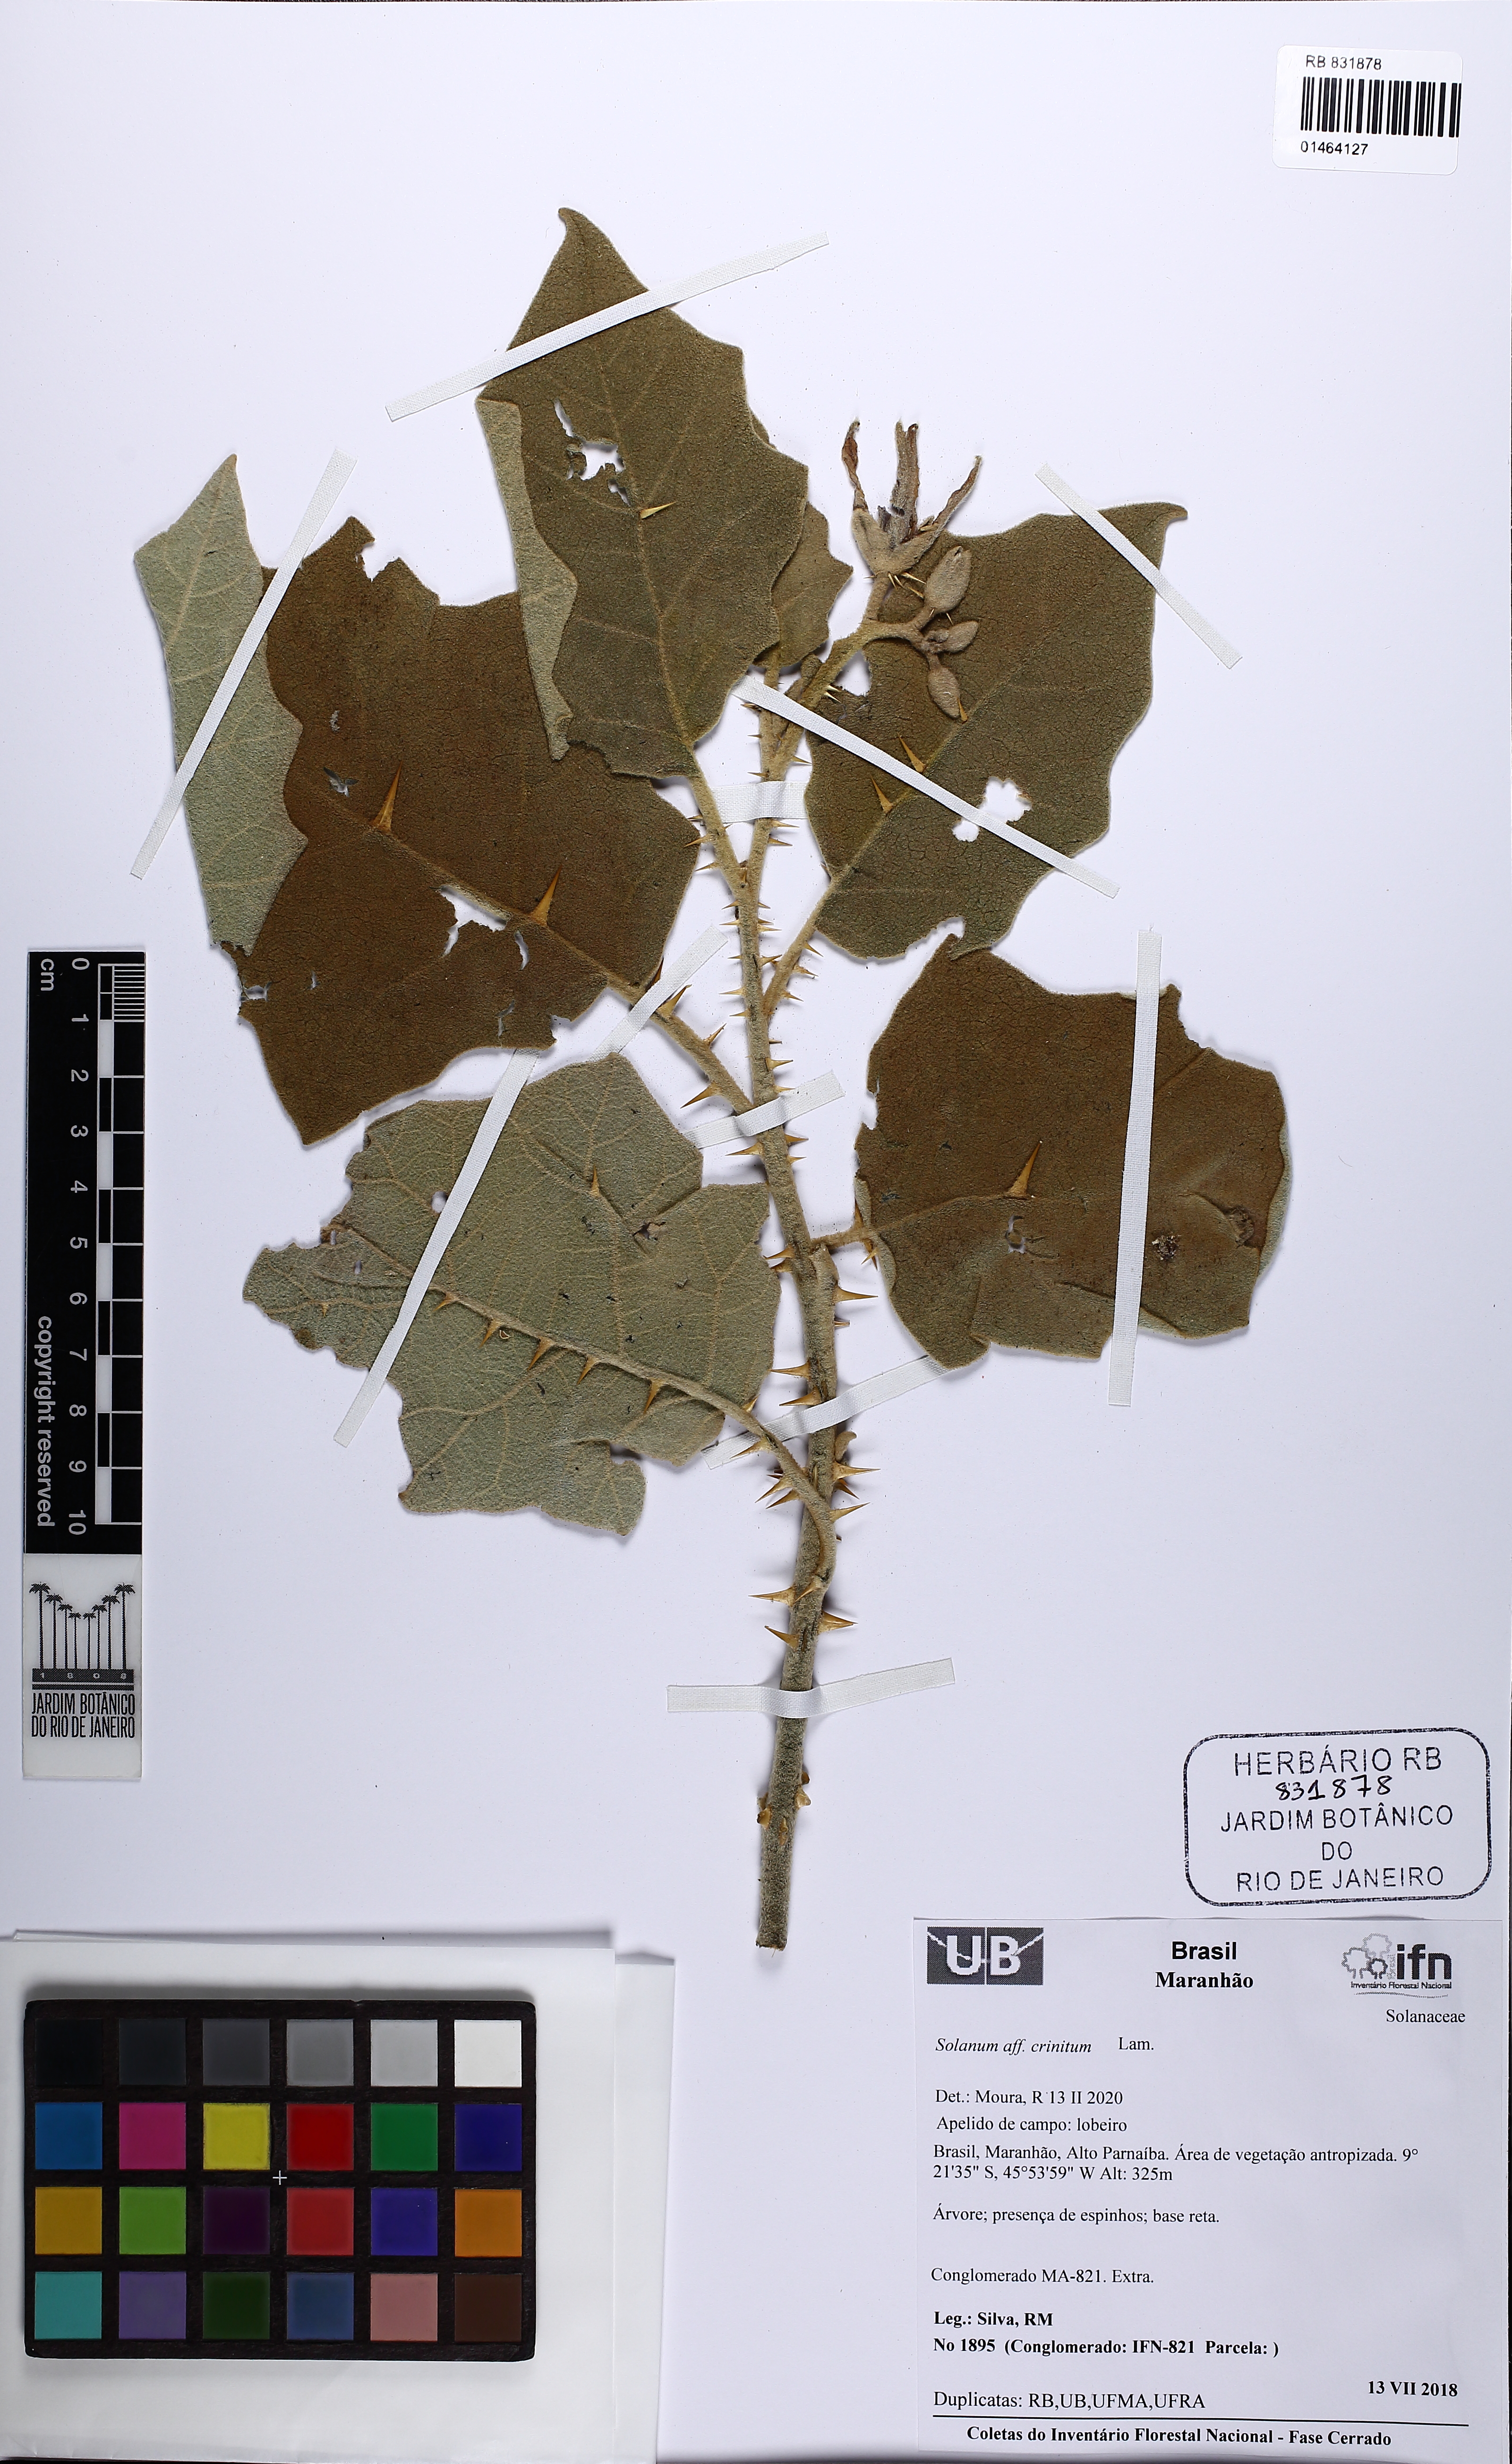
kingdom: Plantae
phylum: Tracheophyta
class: Magnoliopsida
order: Solanales
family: Solanaceae
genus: Solanum
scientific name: Solanum crinitum
